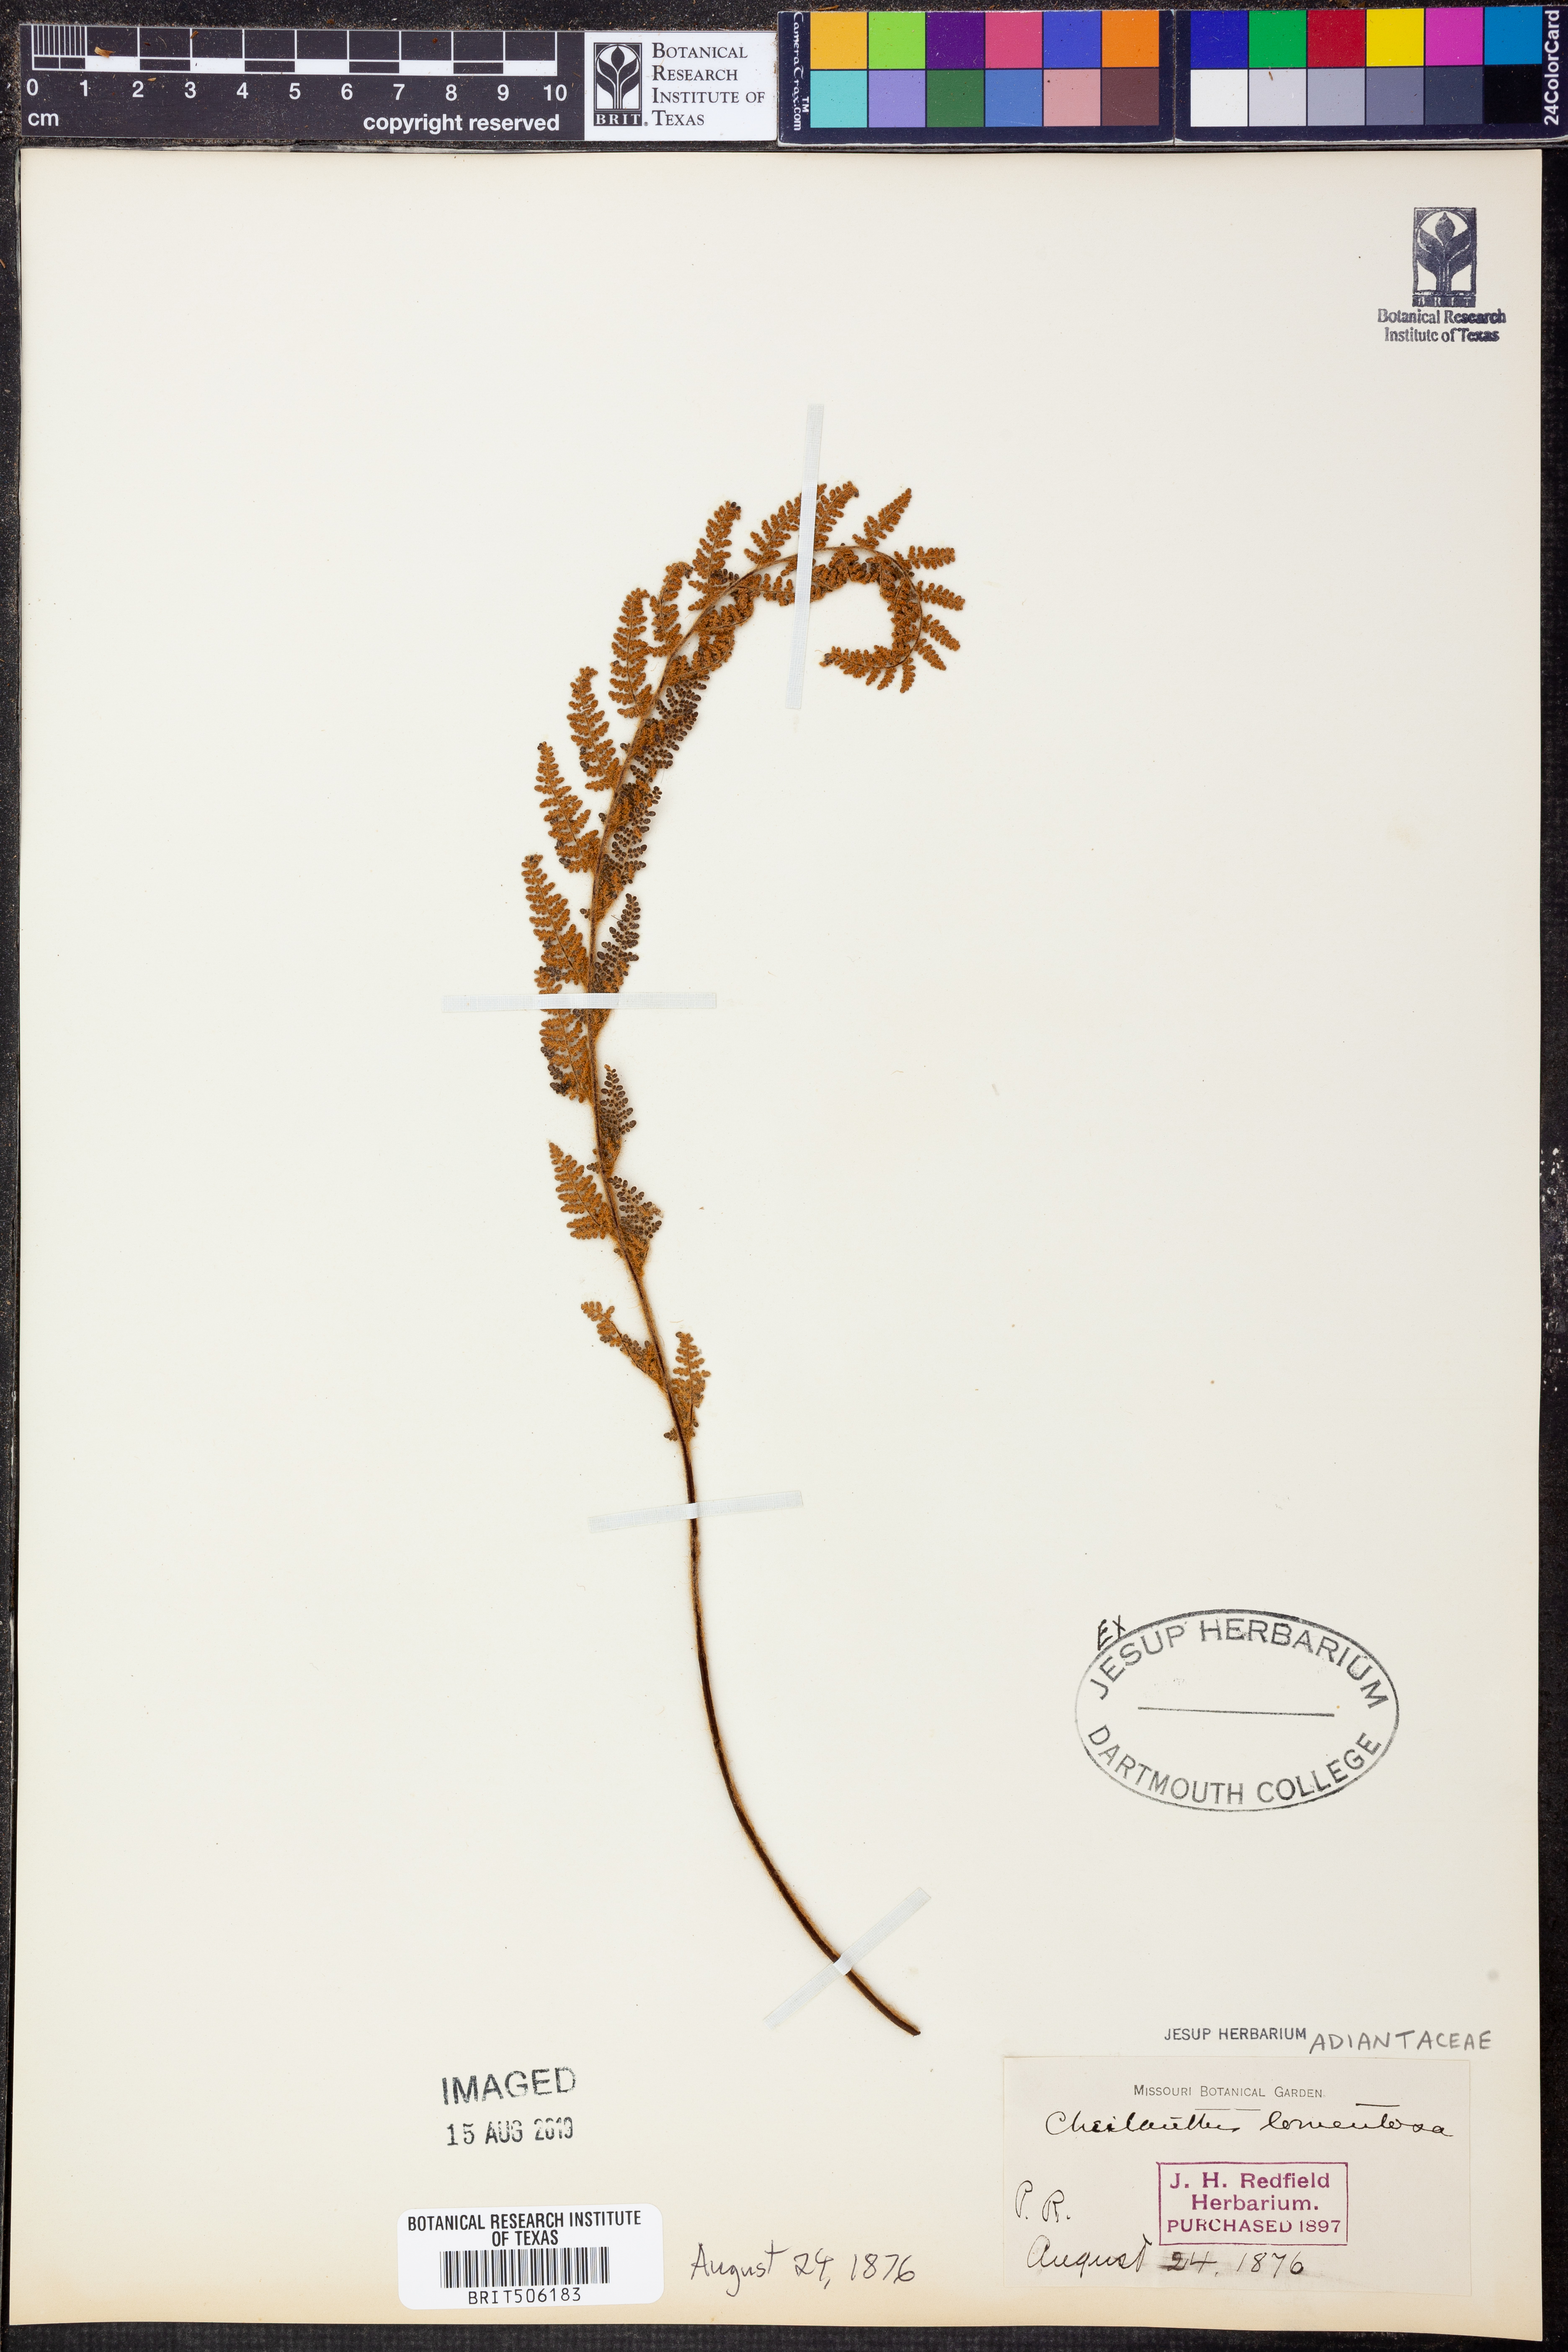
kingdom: Plantae
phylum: Tracheophyta
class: Polypodiopsida
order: Polypodiales
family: Pteridaceae
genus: Myriopteris
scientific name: Myriopteris tomentosa
